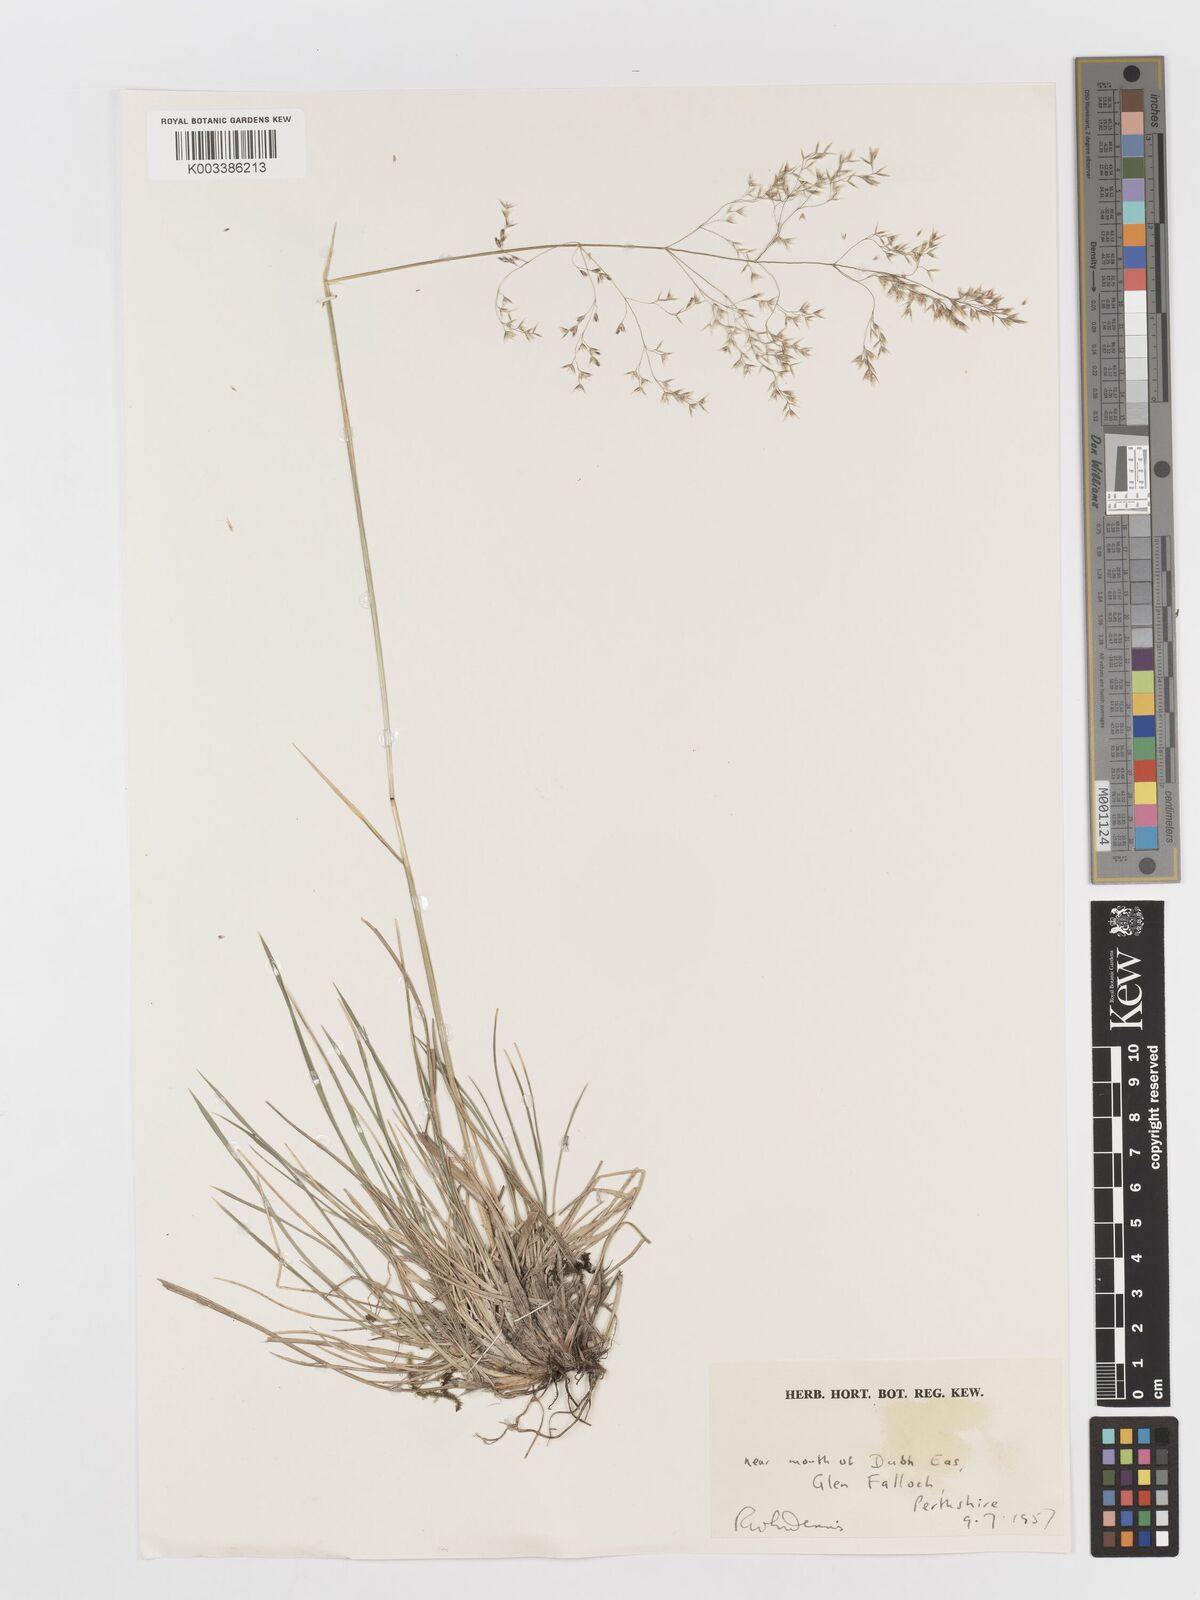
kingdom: Plantae
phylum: Tracheophyta
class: Liliopsida
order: Poales
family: Poaceae
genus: Deschampsia
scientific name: Deschampsia
